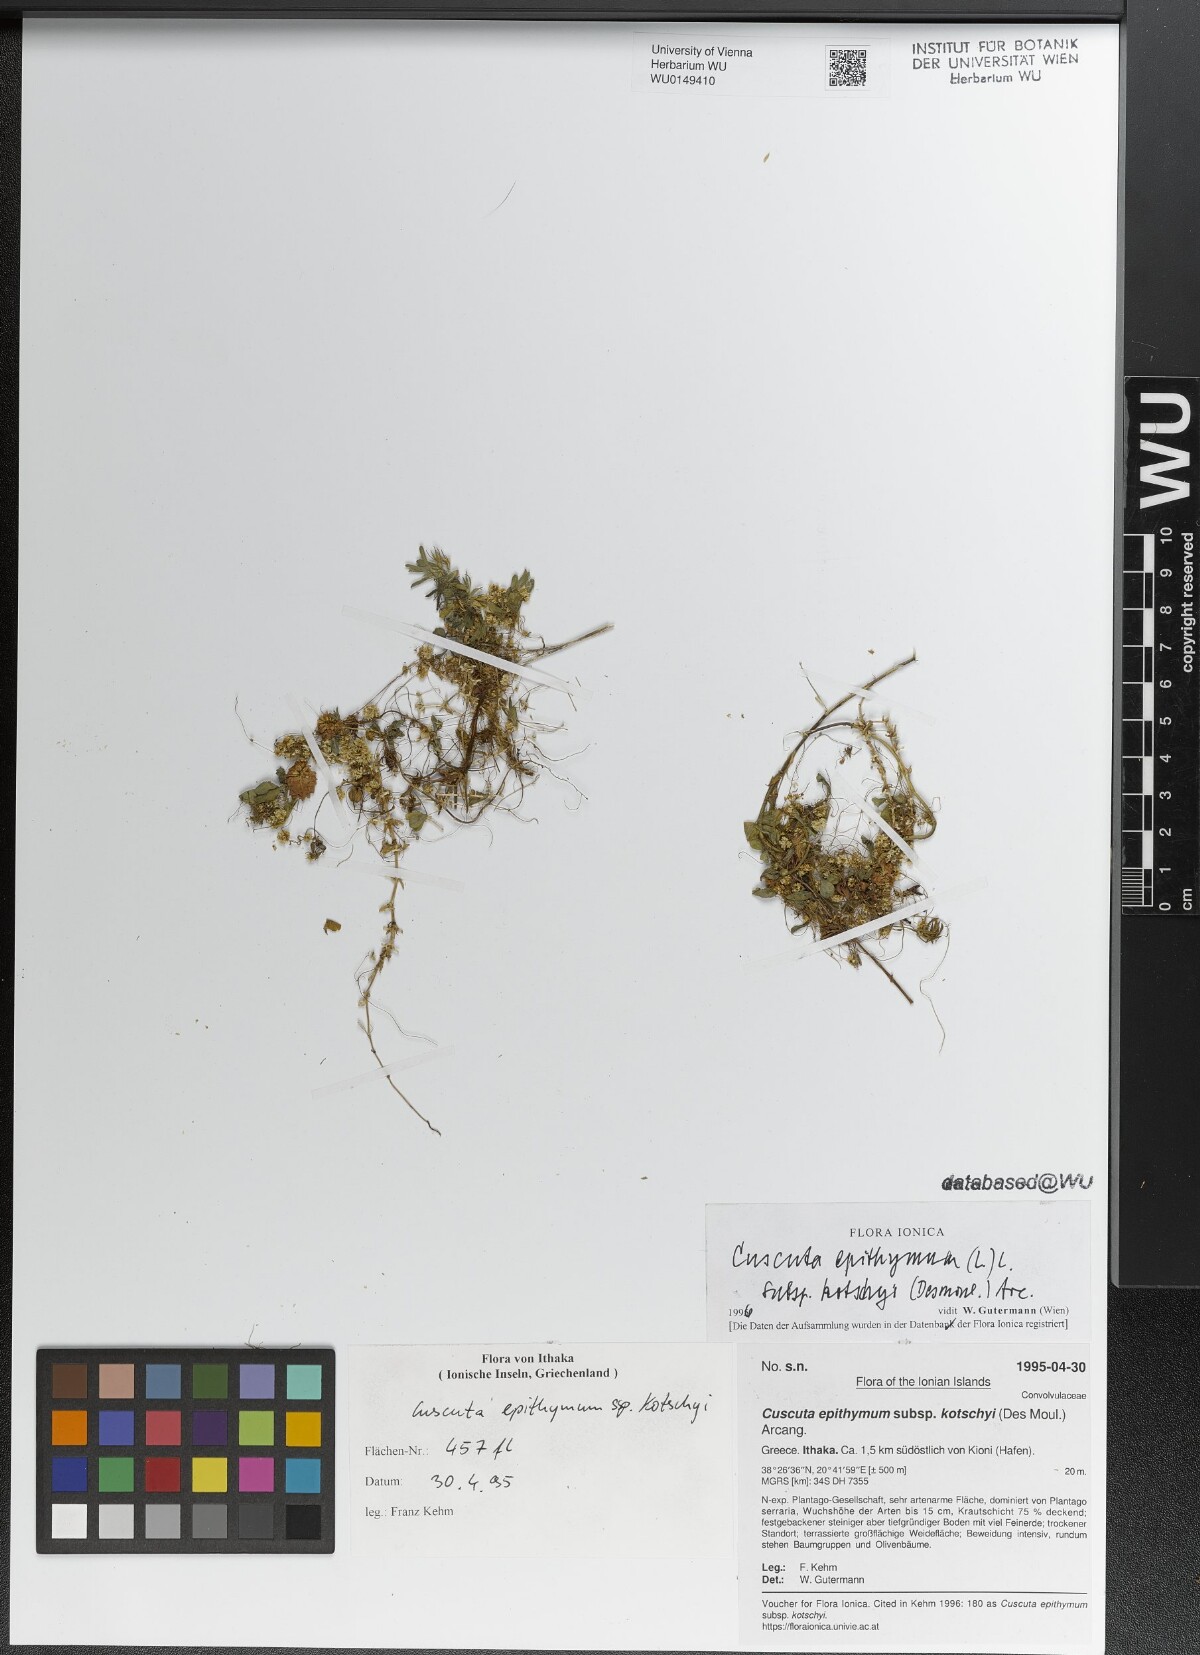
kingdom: Plantae
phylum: Tracheophyta
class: Magnoliopsida
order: Solanales
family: Convolvulaceae
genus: Cuscuta
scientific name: Cuscuta epithymum
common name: Clover dodder
